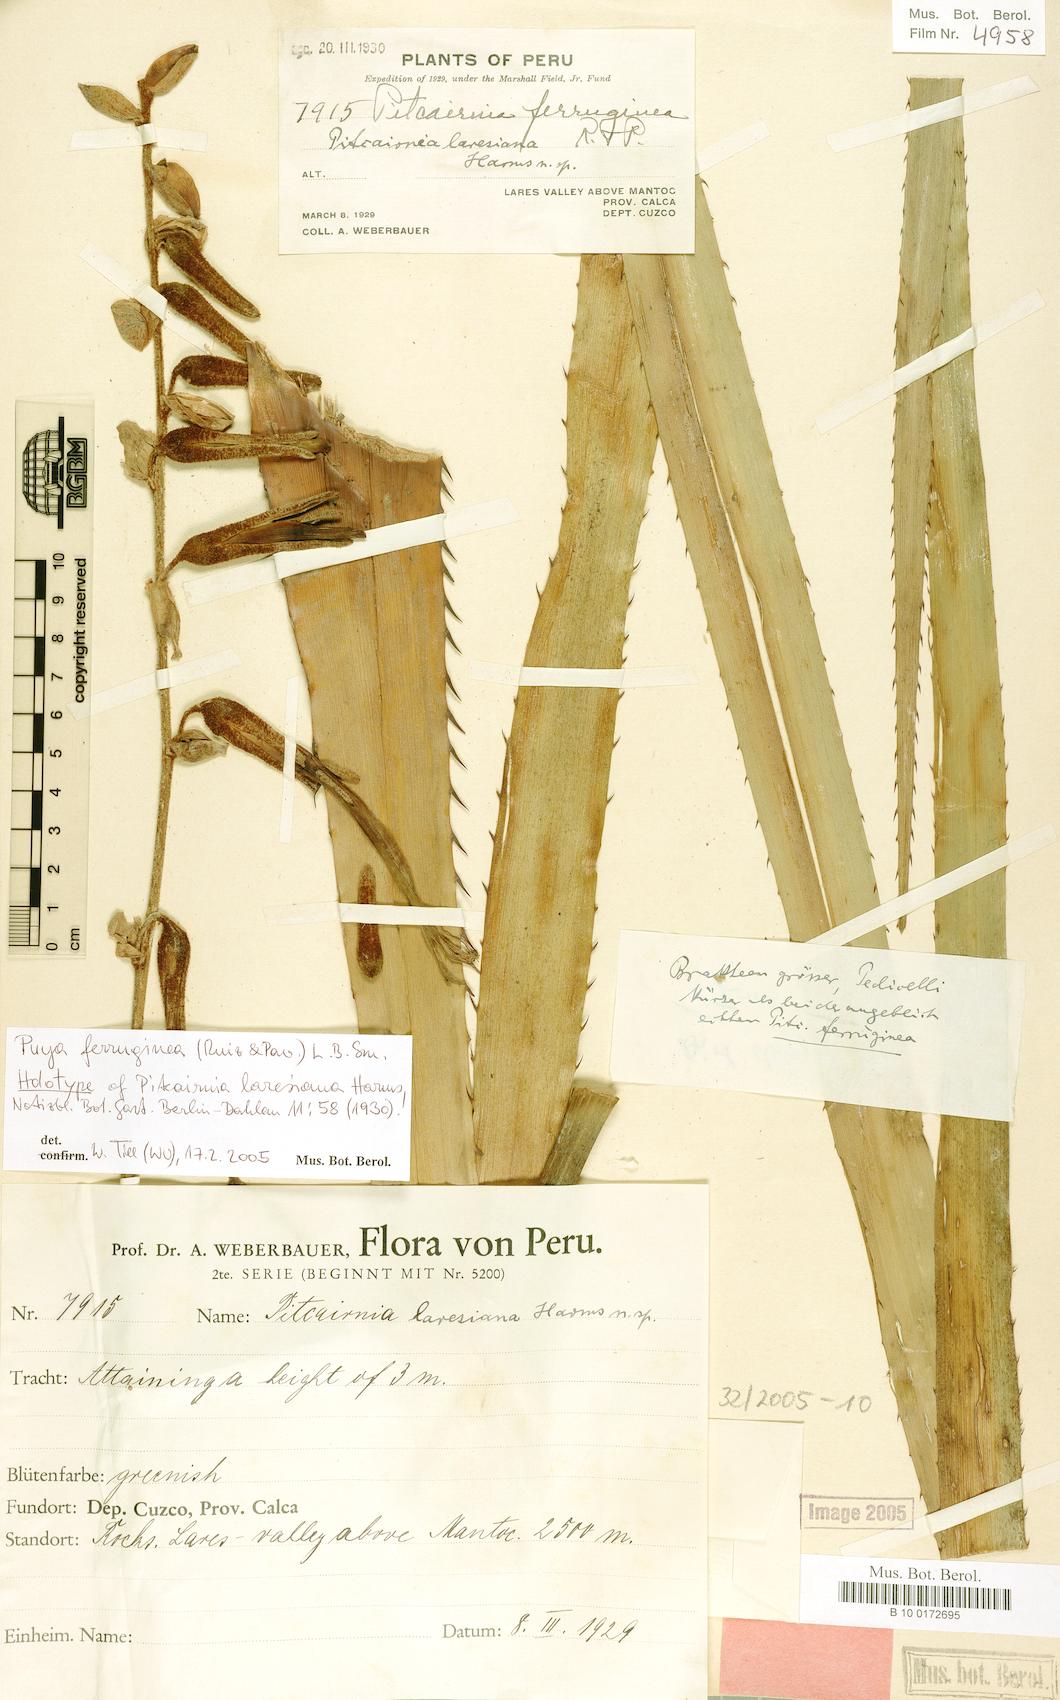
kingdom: Plantae
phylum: Tracheophyta
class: Liliopsida
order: Poales
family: Bromeliaceae
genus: Puya
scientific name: Puya ferruginea
